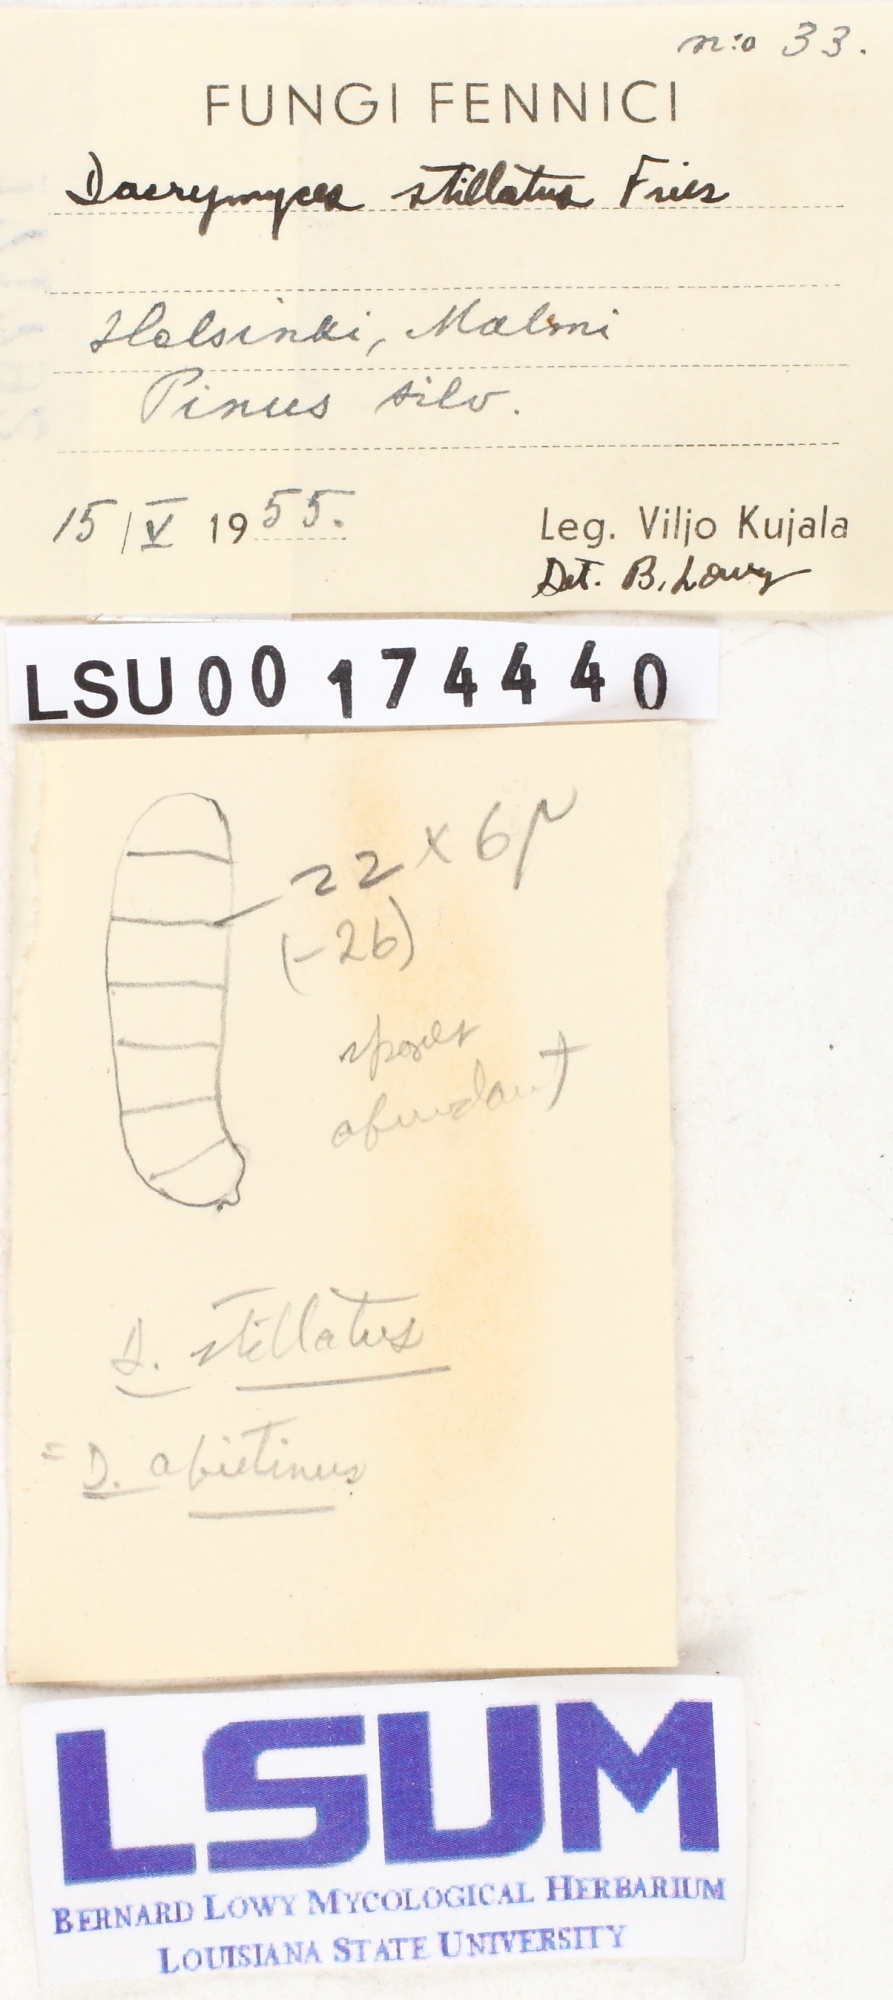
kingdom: Fungi
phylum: Basidiomycota
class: Dacrymycetes
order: Dacrymycetales
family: Dacrymycetaceae
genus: Dacrymyces
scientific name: Dacrymyces stillatus
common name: Common jelly spot
